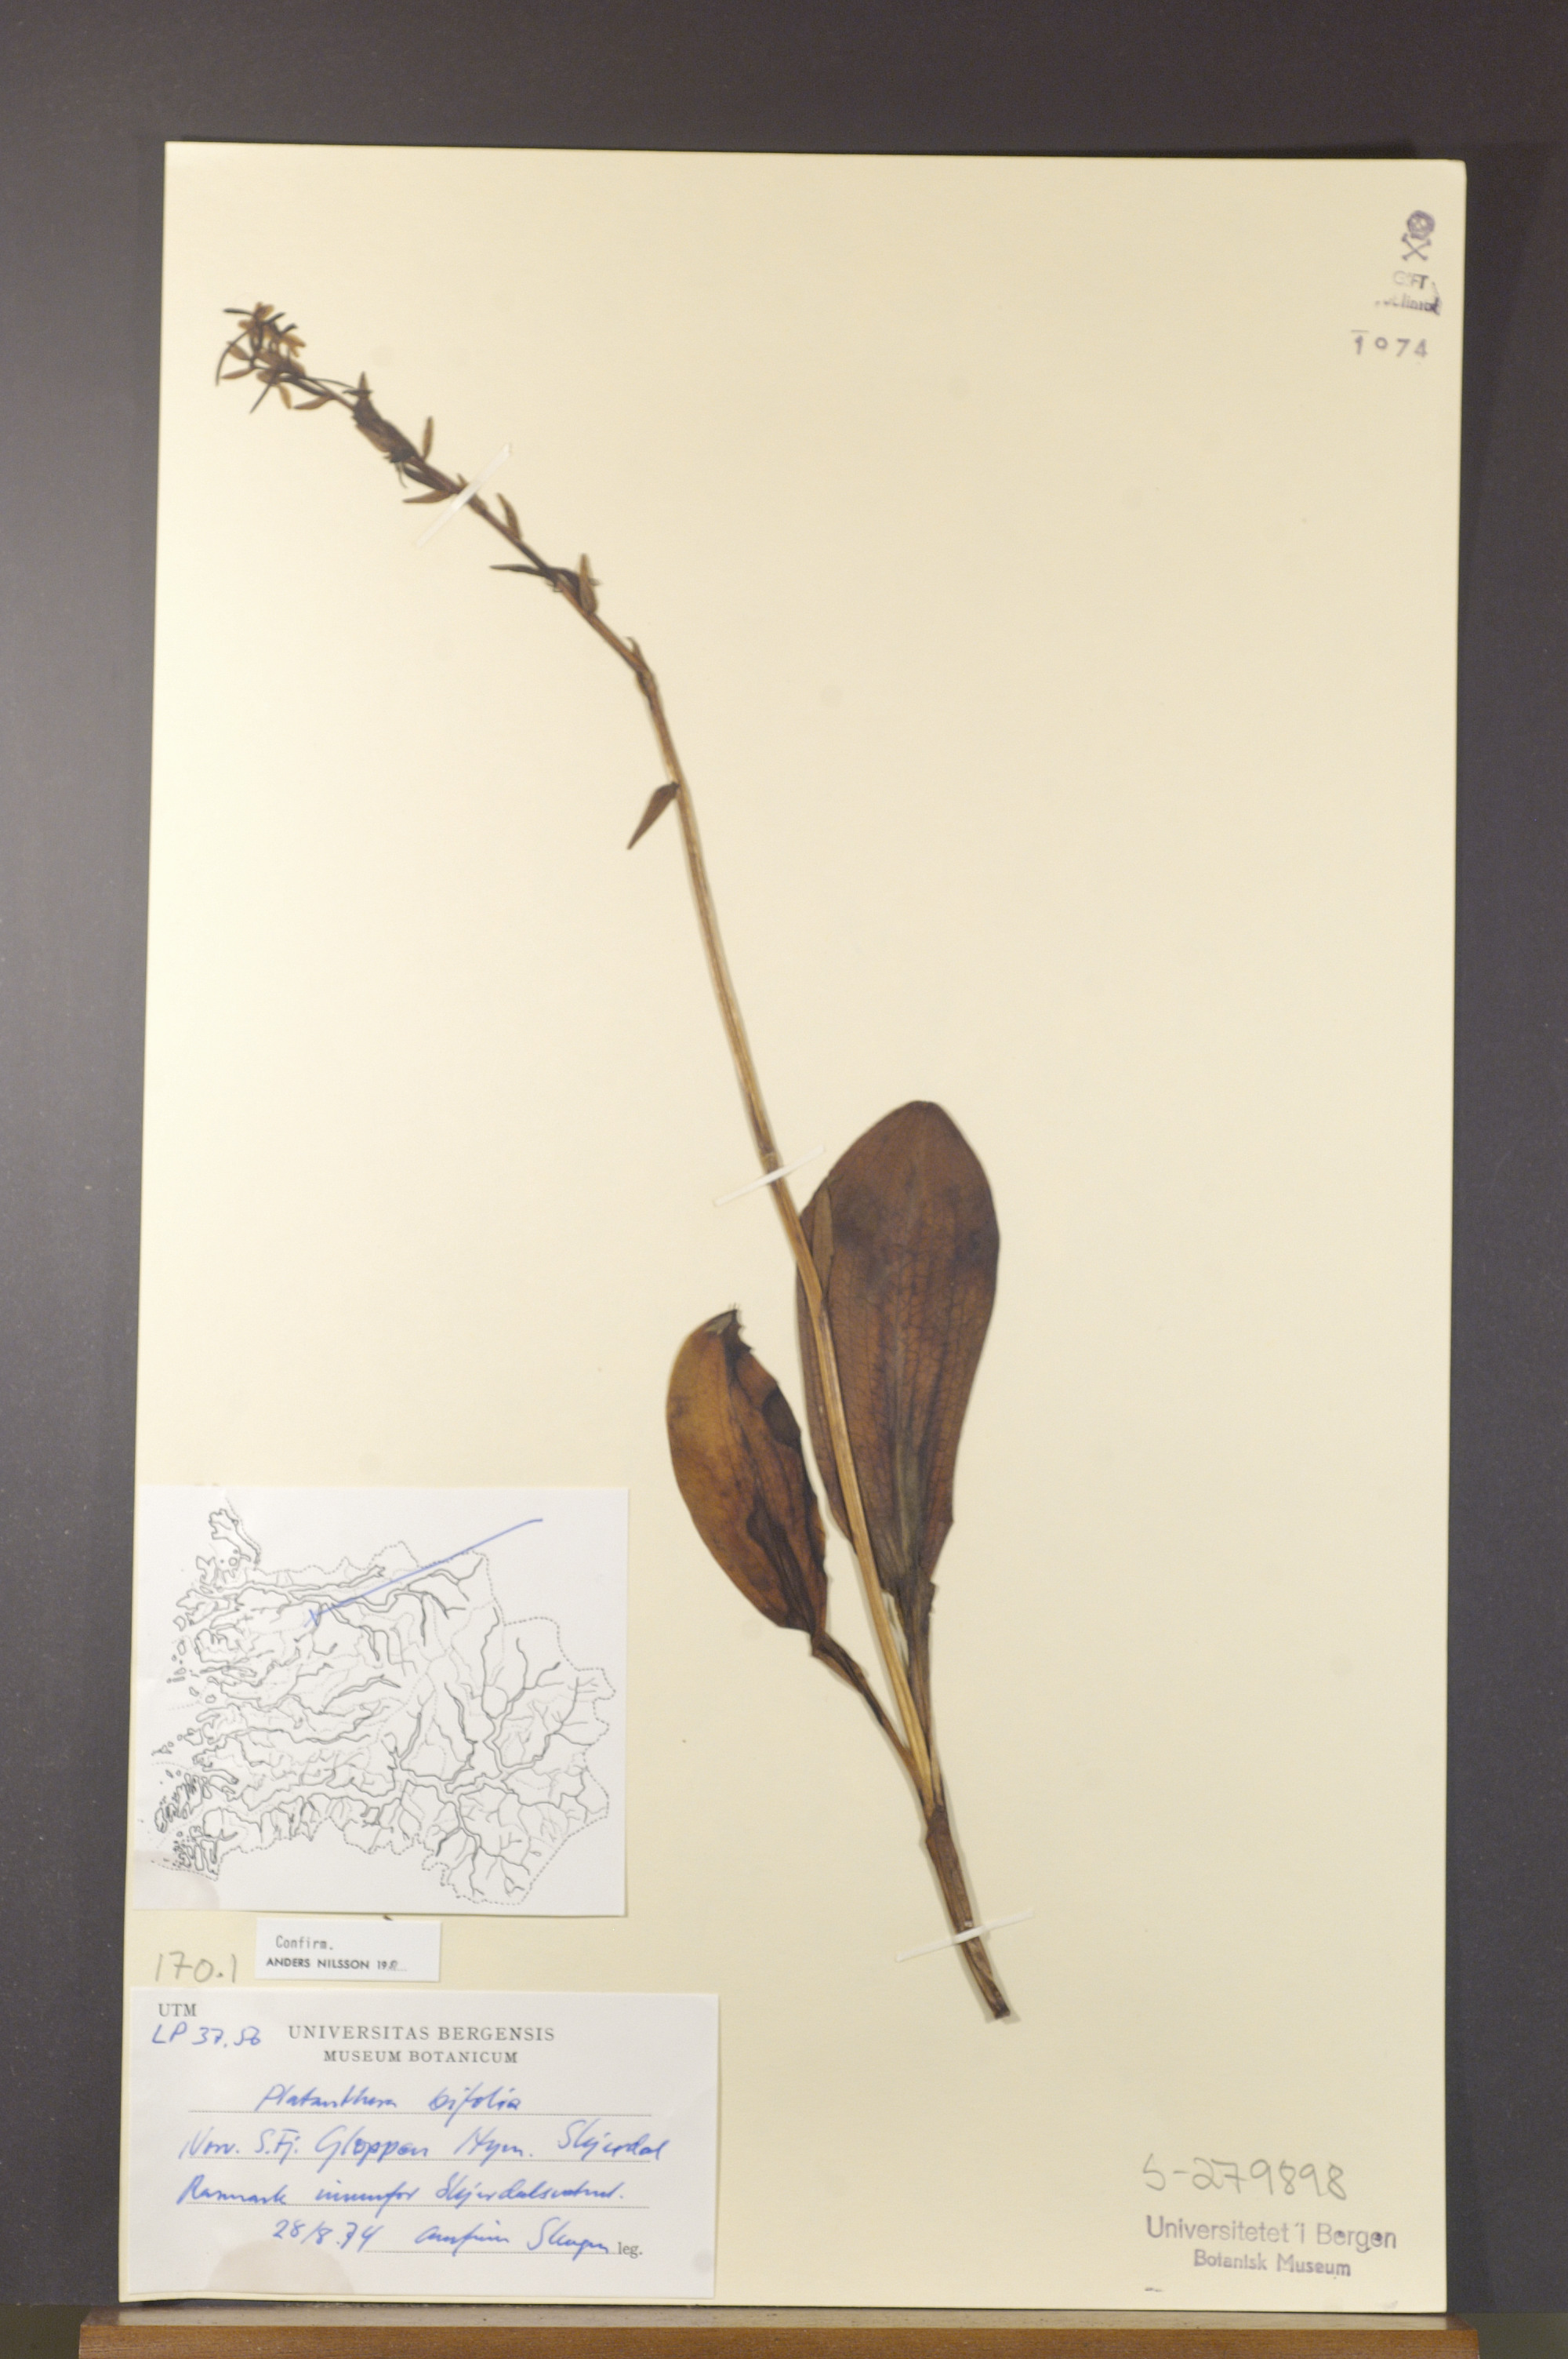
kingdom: Plantae
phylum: Tracheophyta
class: Liliopsida
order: Asparagales
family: Orchidaceae
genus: Platanthera
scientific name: Platanthera bifolia
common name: Lesser butterfly-orchid
